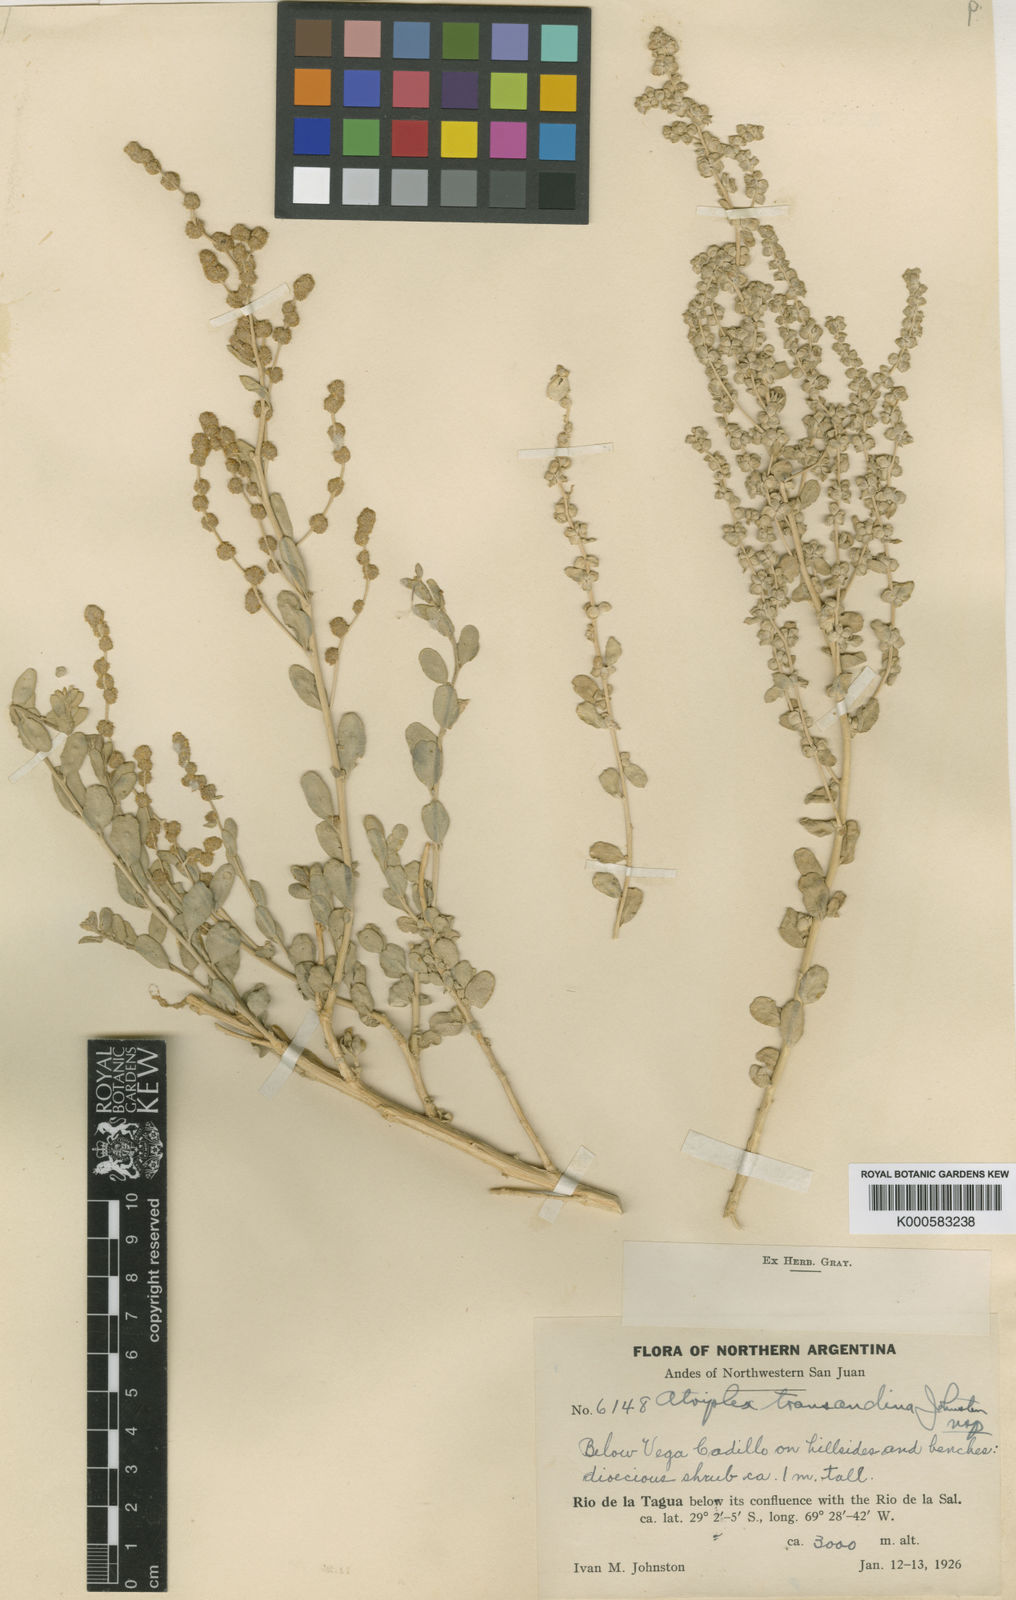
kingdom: Plantae
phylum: Tracheophyta
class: Magnoliopsida
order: Caryophyllales
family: Amaranthaceae
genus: Atriplex
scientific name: Atriplex retusa
